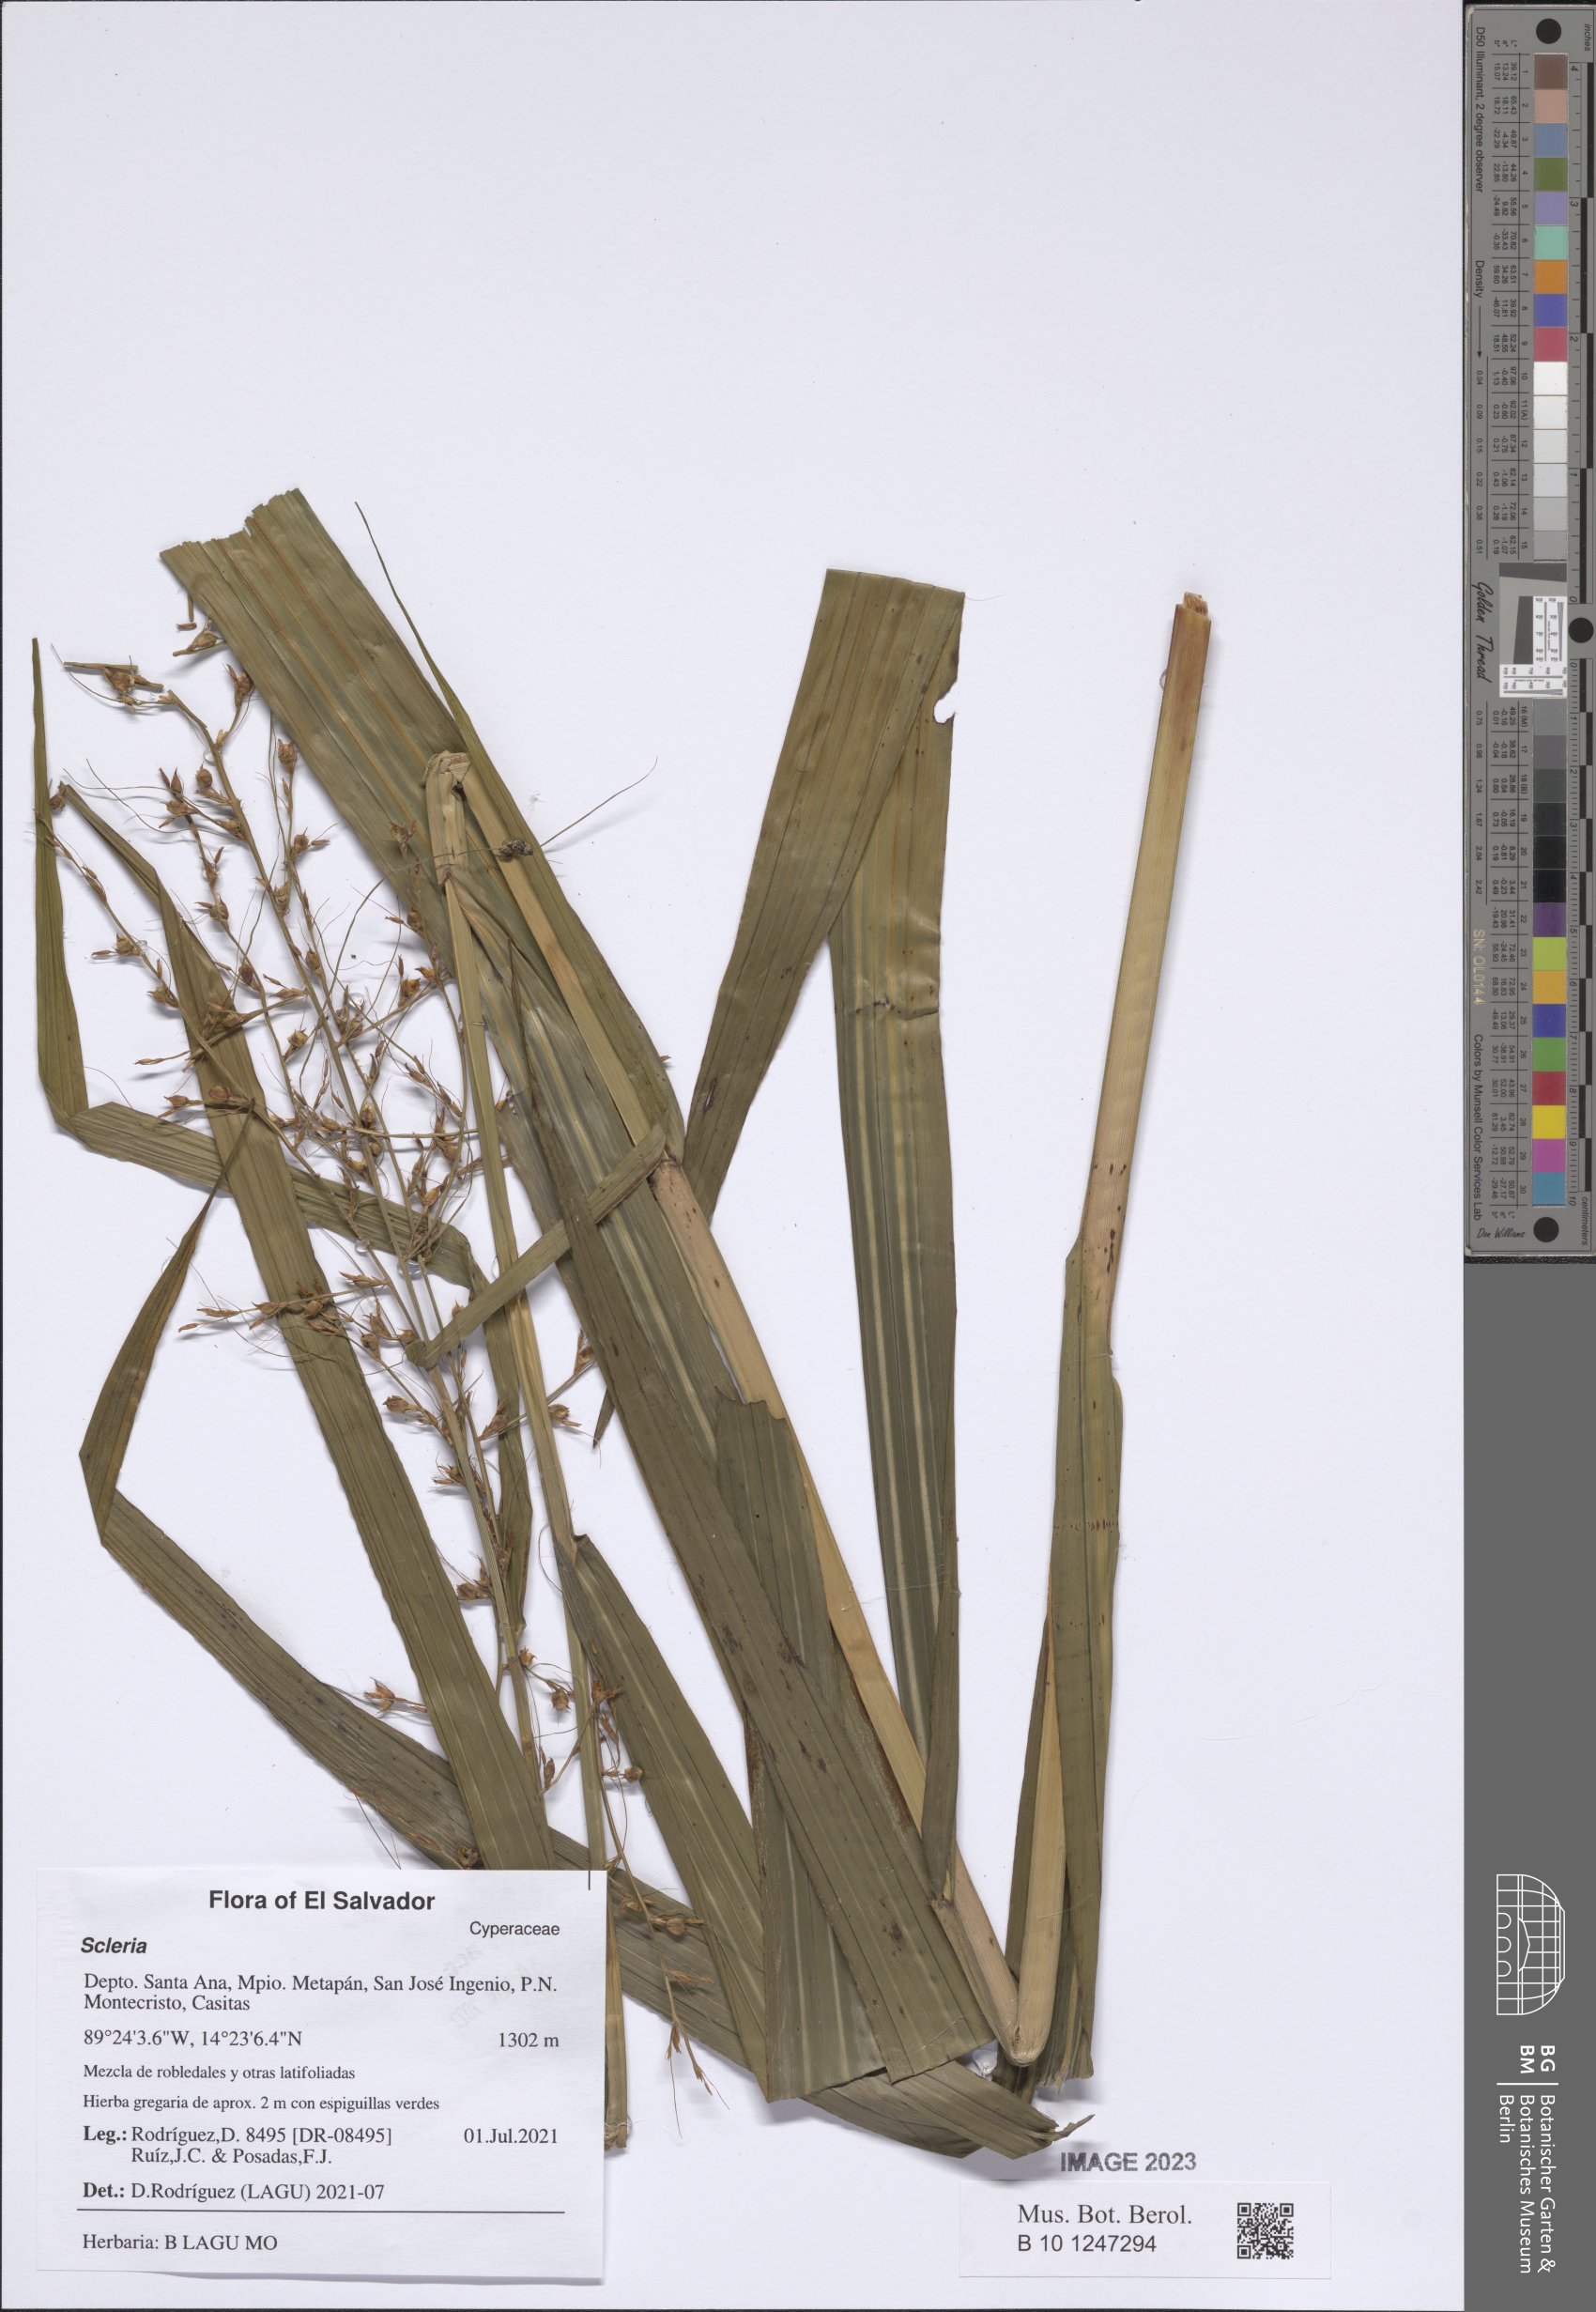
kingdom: Plantae
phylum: Tracheophyta
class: Liliopsida
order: Poales
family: Cyperaceae
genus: Scleria
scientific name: Scleria
